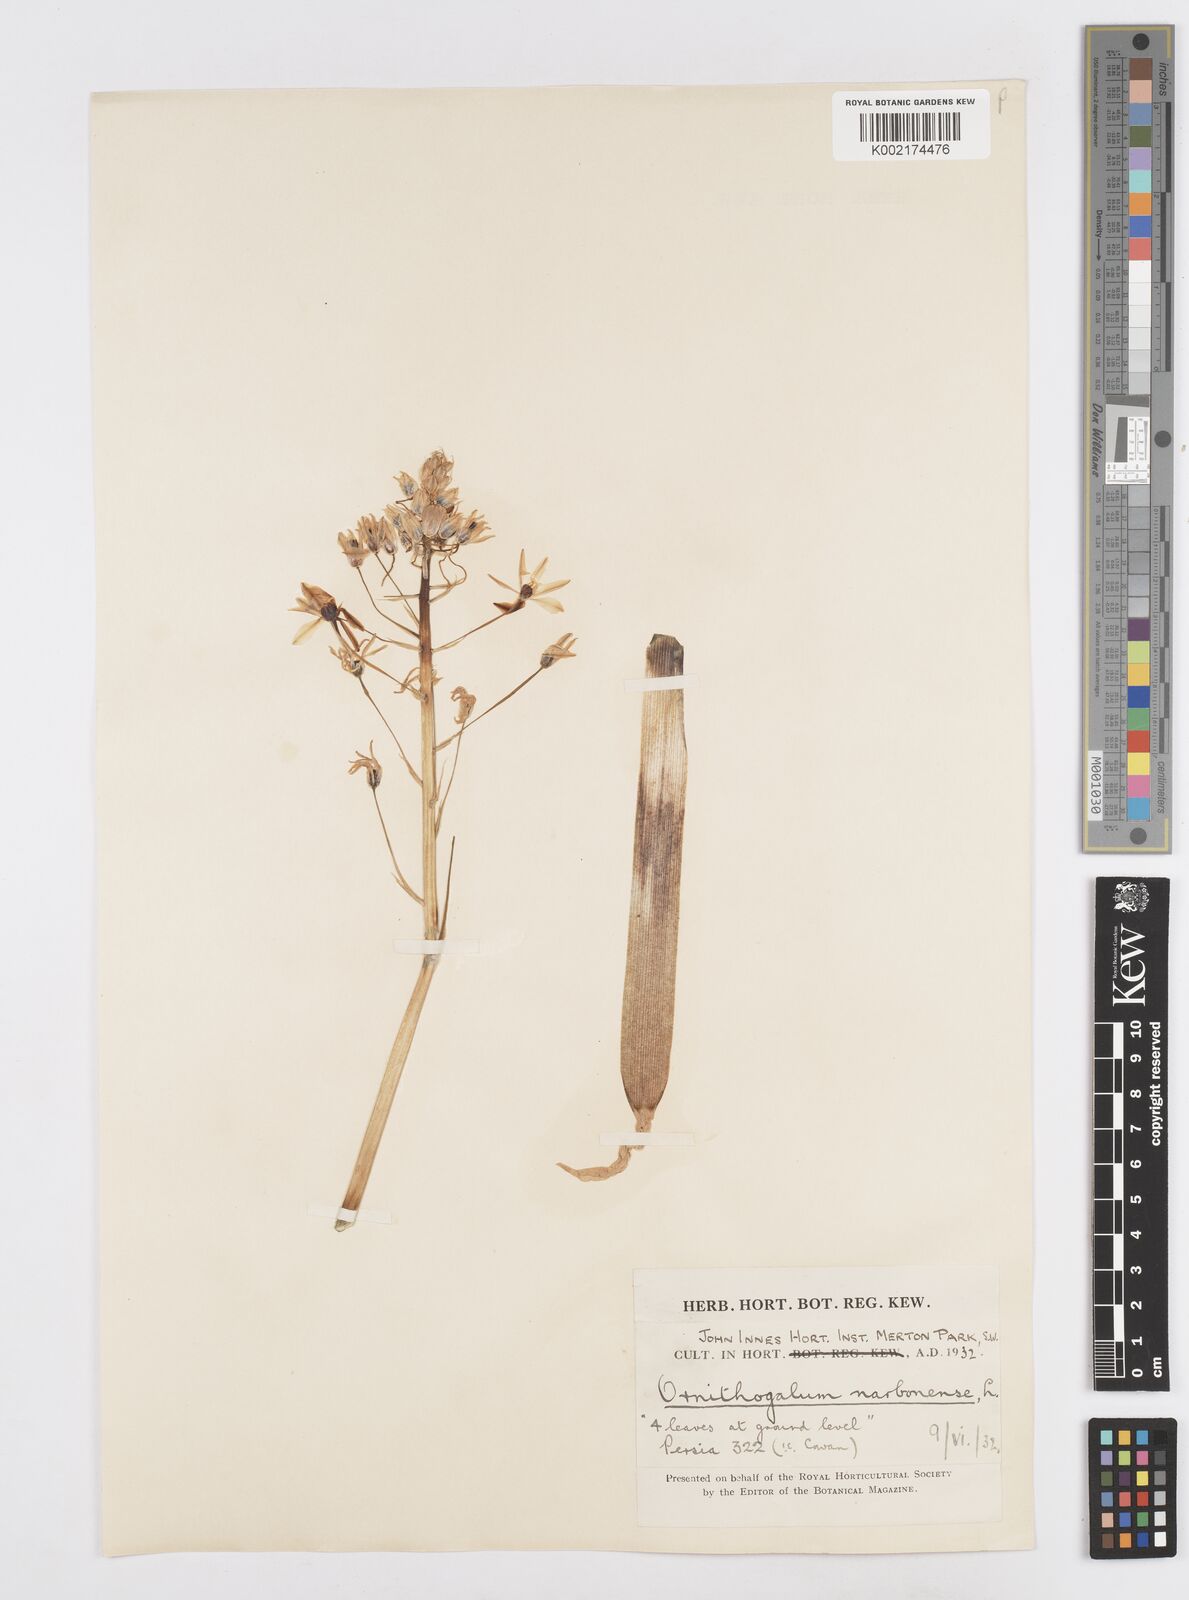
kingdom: Plantae
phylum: Tracheophyta
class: Liliopsida
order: Asparagales
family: Asparagaceae
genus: Ornithogalum
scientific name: Ornithogalum narbonense
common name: Bath-asparagus
